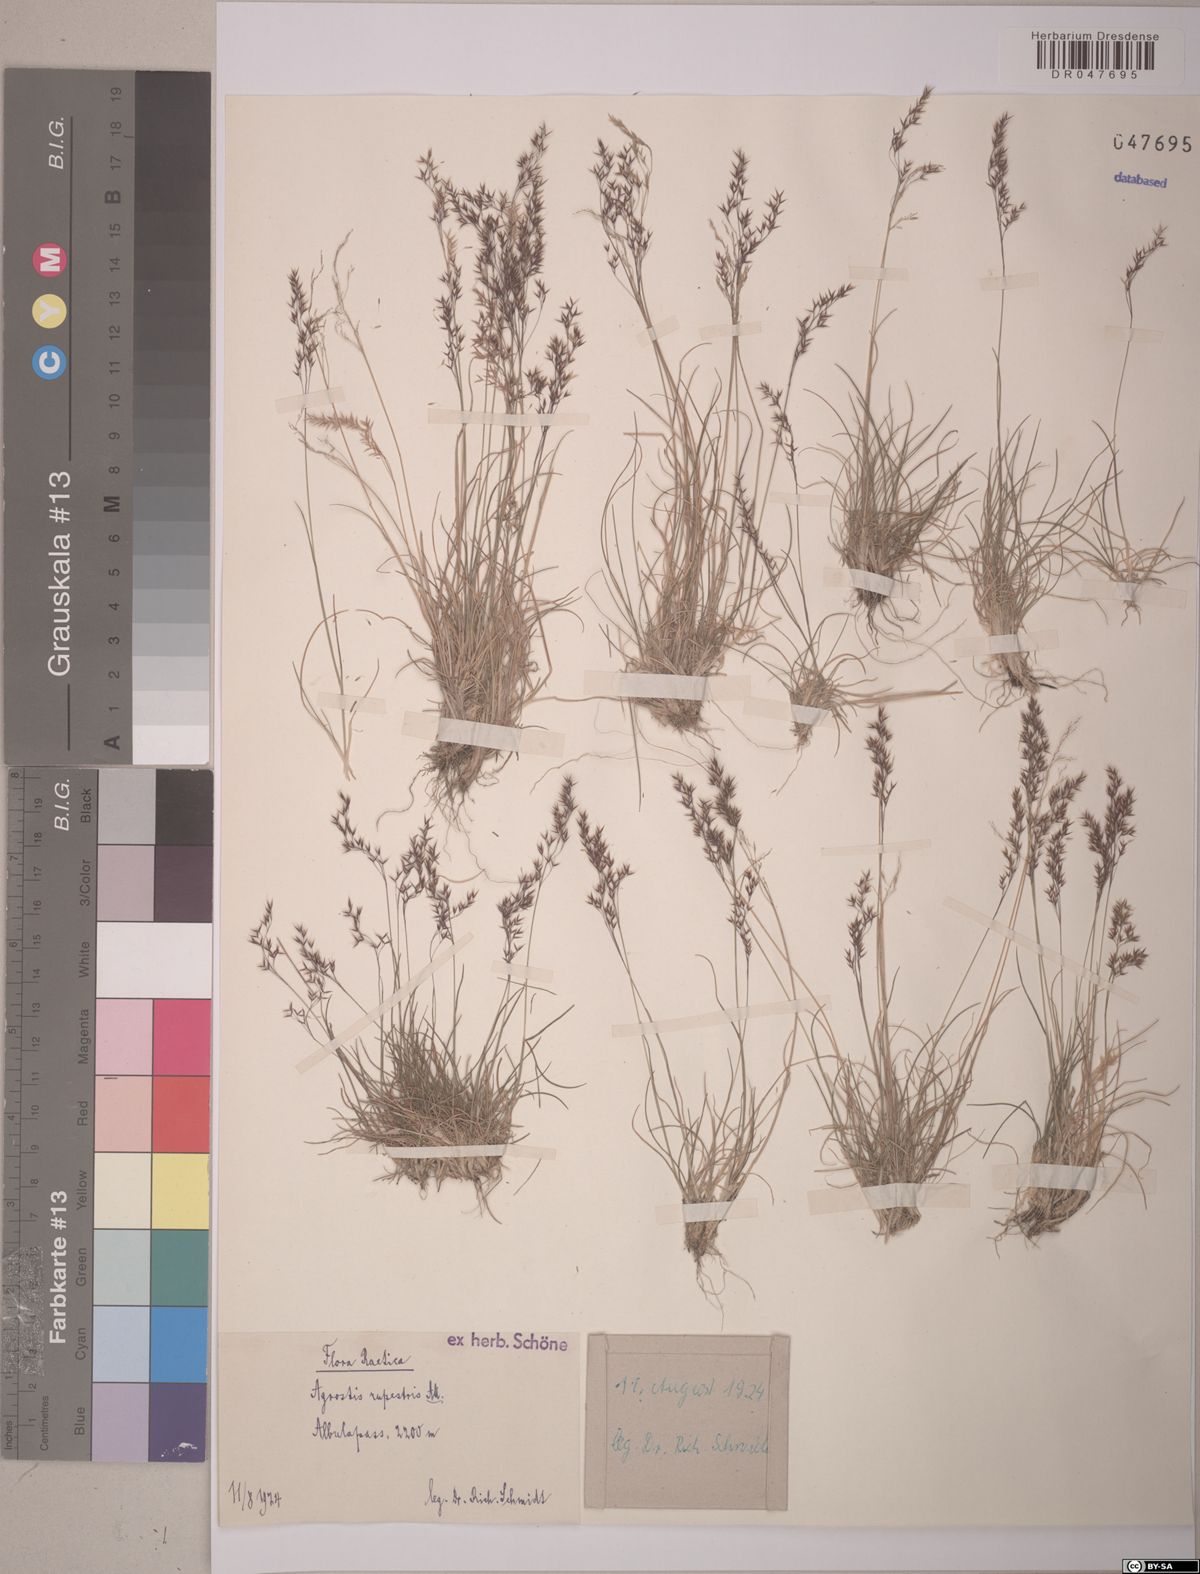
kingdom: Plantae
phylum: Tracheophyta
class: Liliopsida
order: Poales
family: Poaceae
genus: Agrostis
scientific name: Agrostis rupestris
